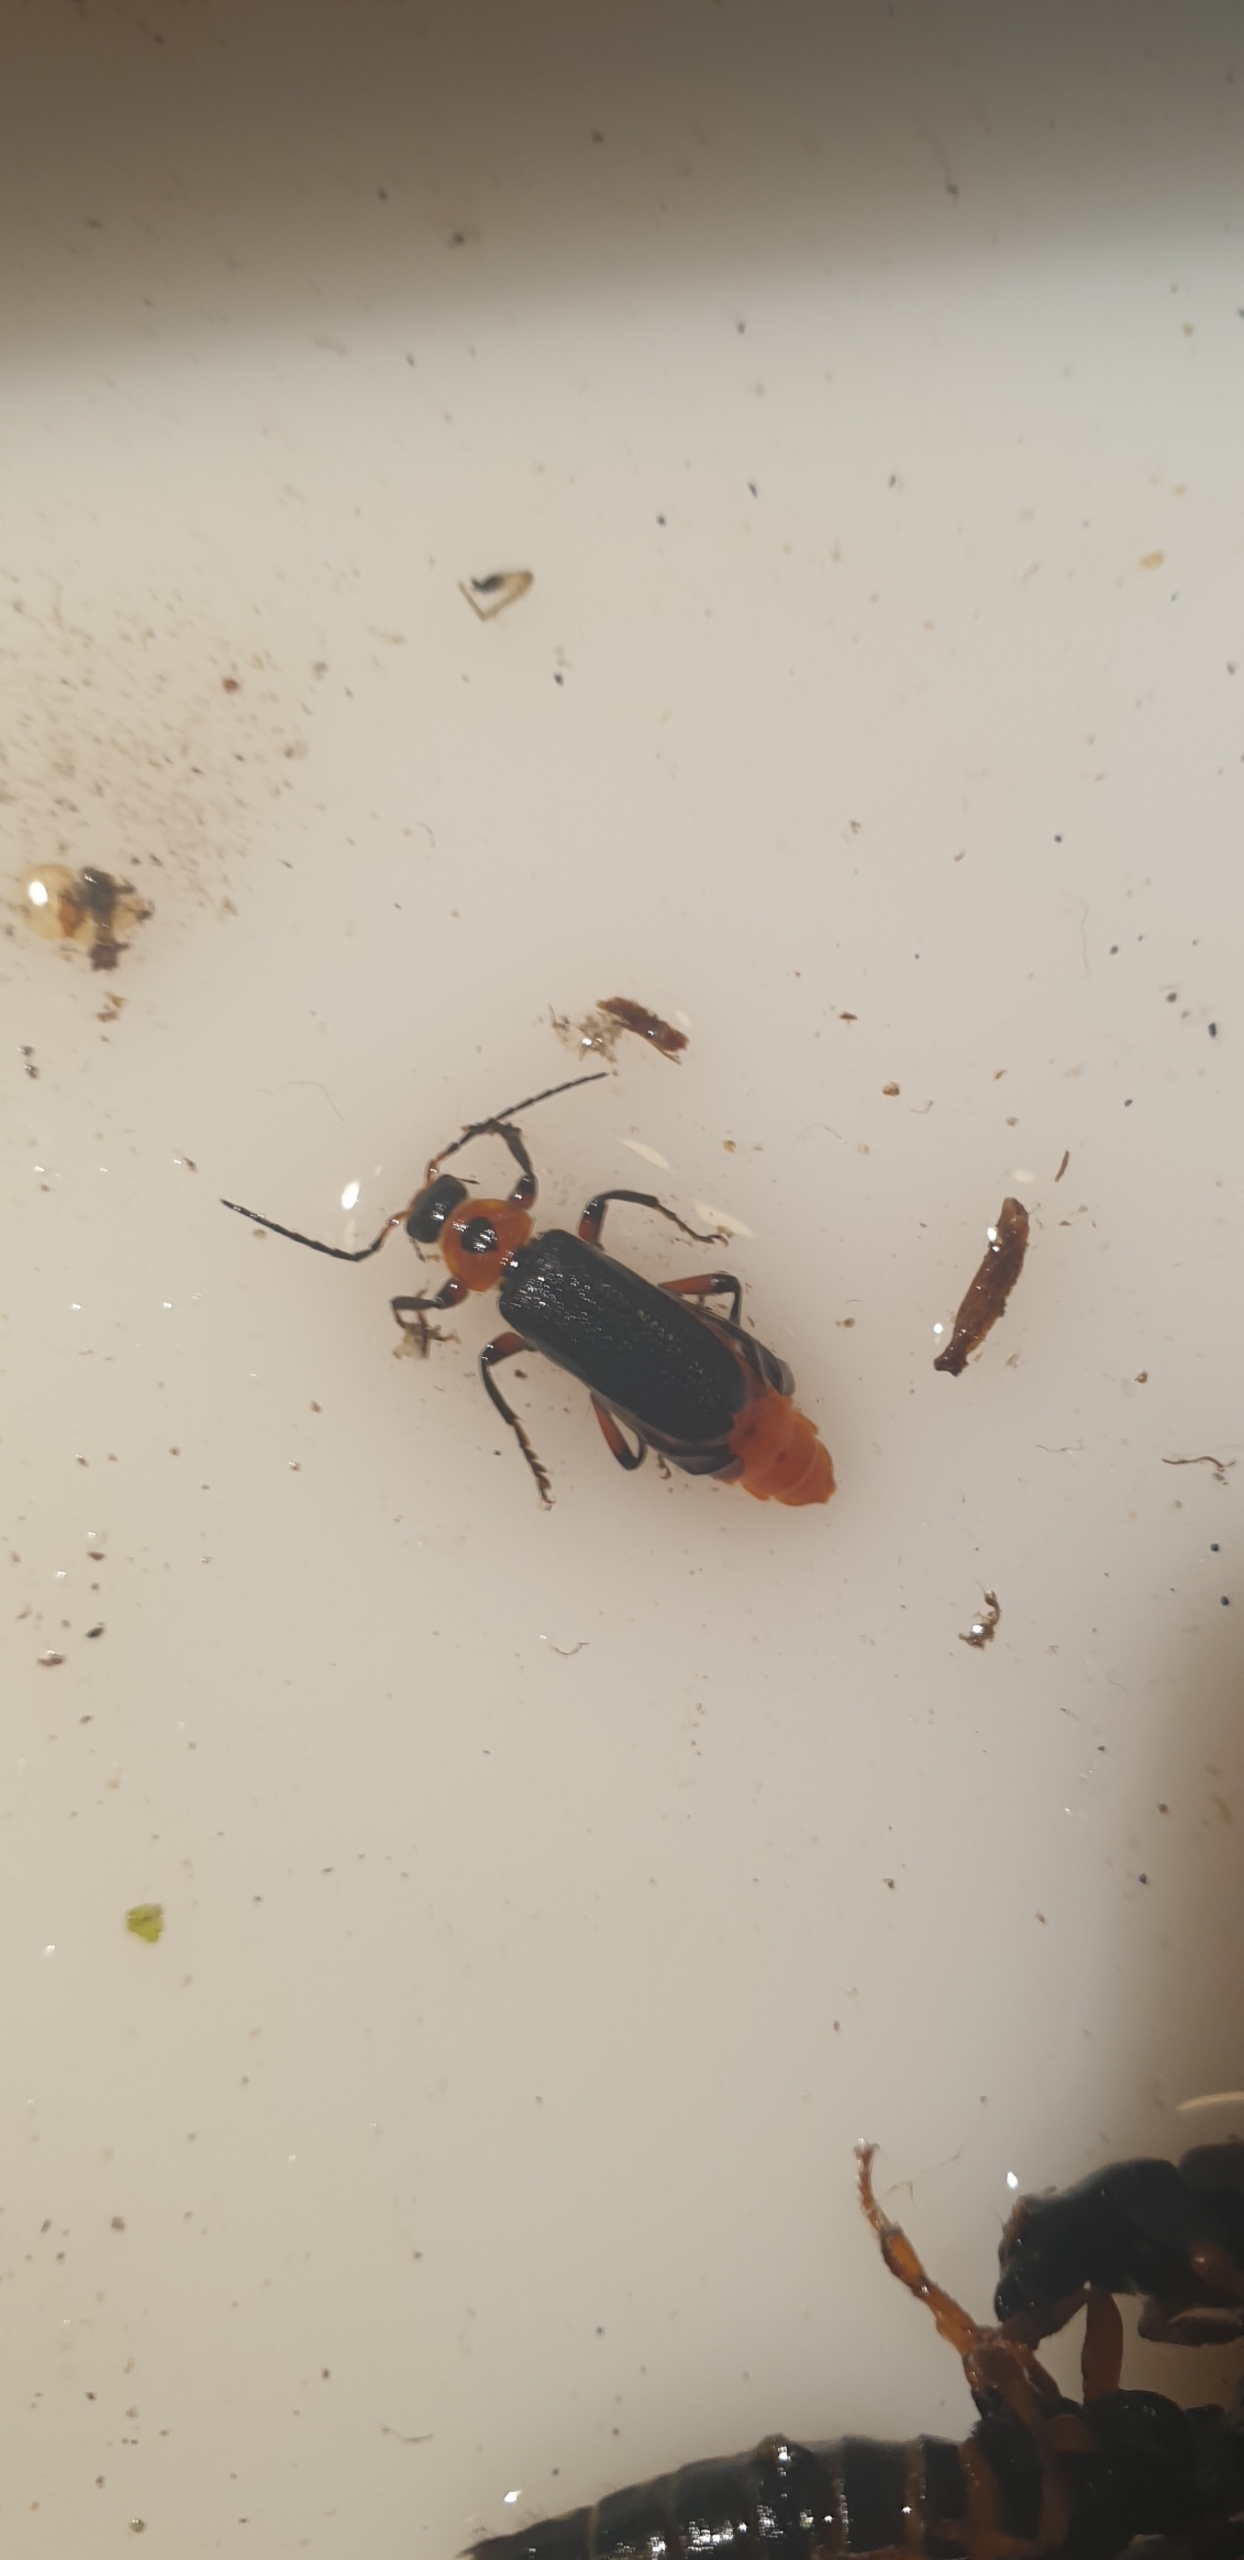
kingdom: Animalia
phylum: Arthropoda
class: Insecta
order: Coleoptera
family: Cantharidae
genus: Cantharis
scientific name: Cantharis rustica
